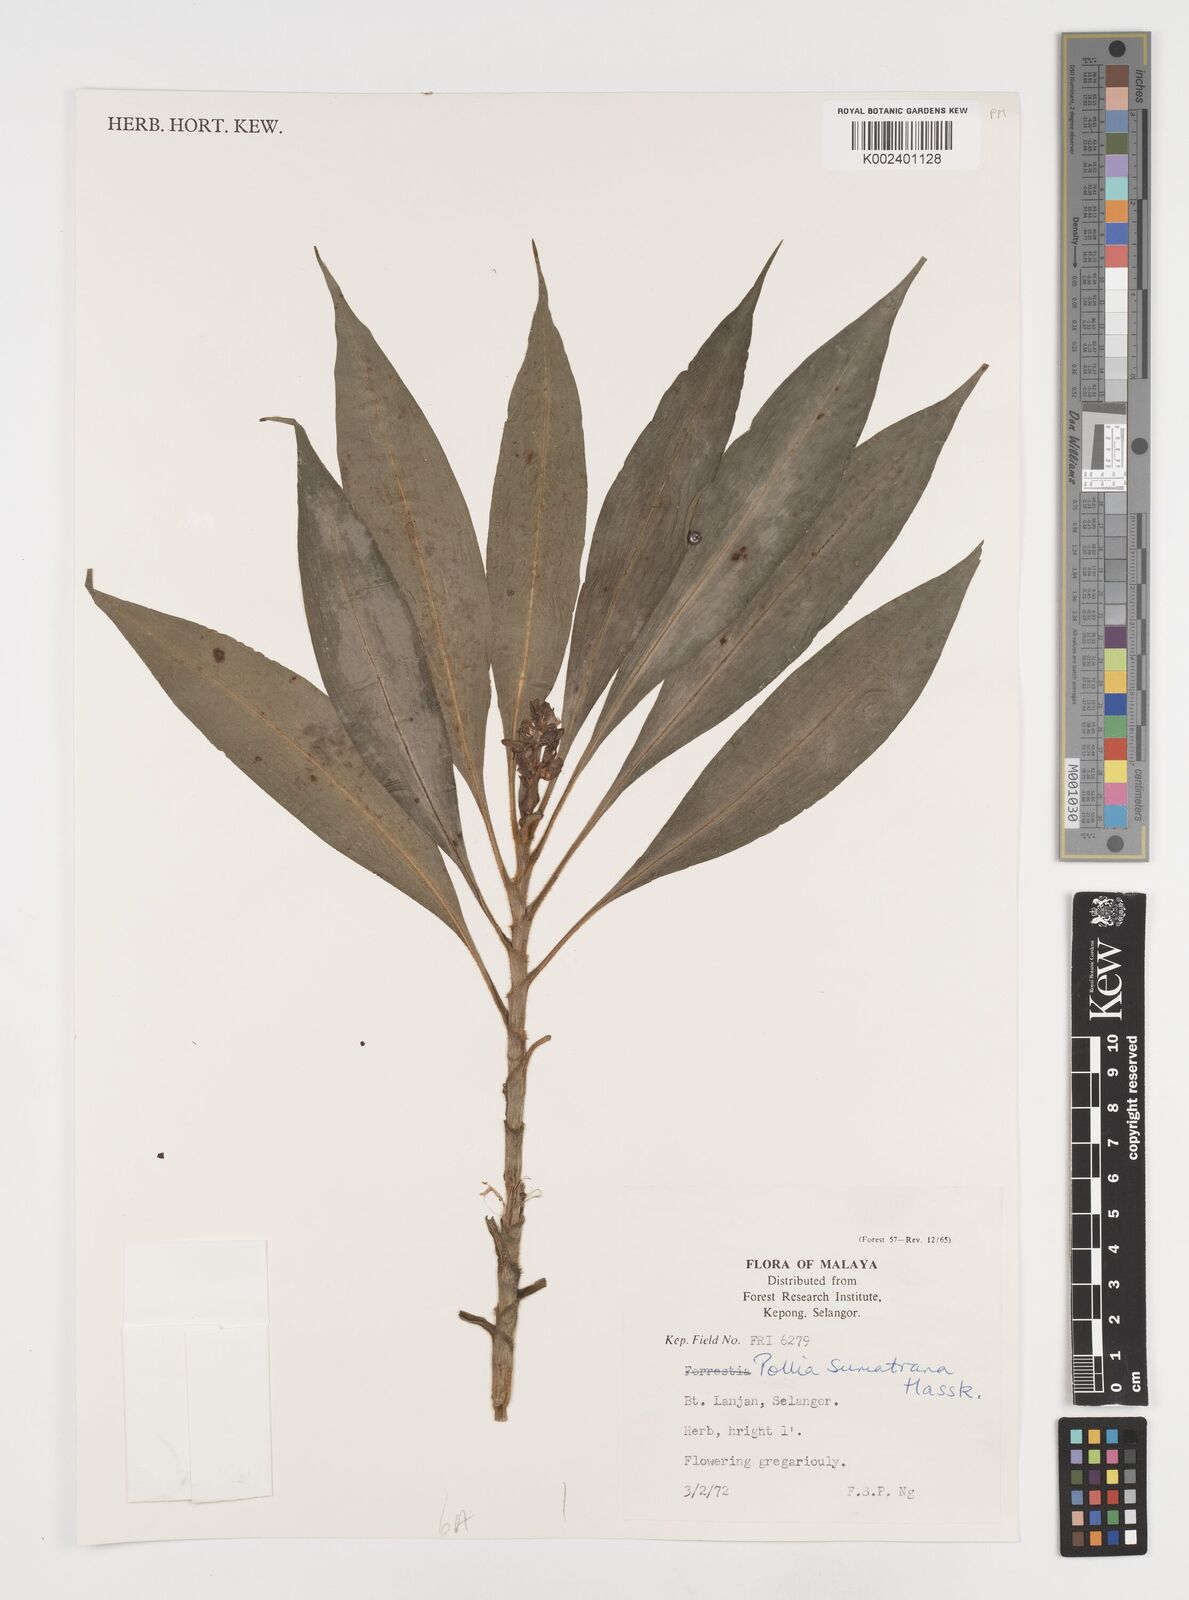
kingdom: Plantae
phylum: Tracheophyta
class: Liliopsida
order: Commelinales
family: Commelinaceae
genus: Pollia
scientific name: Pollia sumatrana
